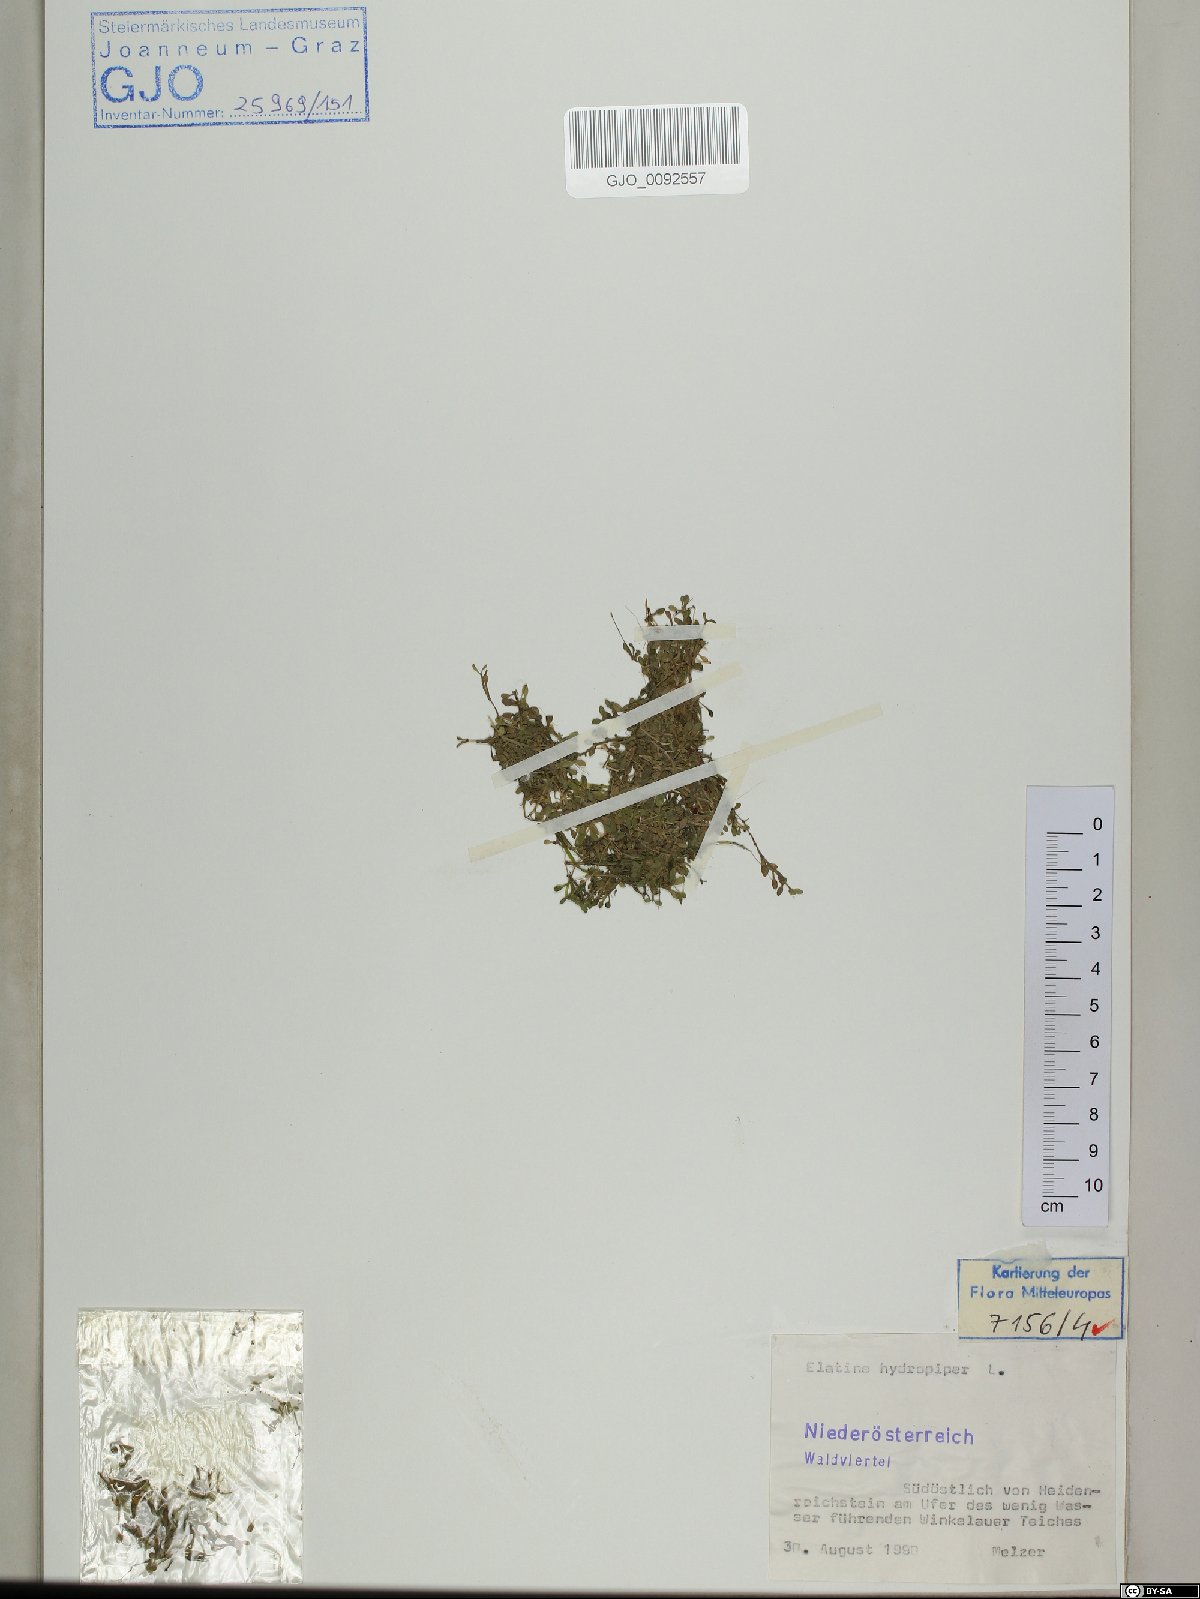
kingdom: Plantae
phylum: Tracheophyta
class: Magnoliopsida
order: Malpighiales
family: Elatinaceae
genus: Elatine
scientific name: Elatine hydropiper
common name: Eight-stamened waterwort
